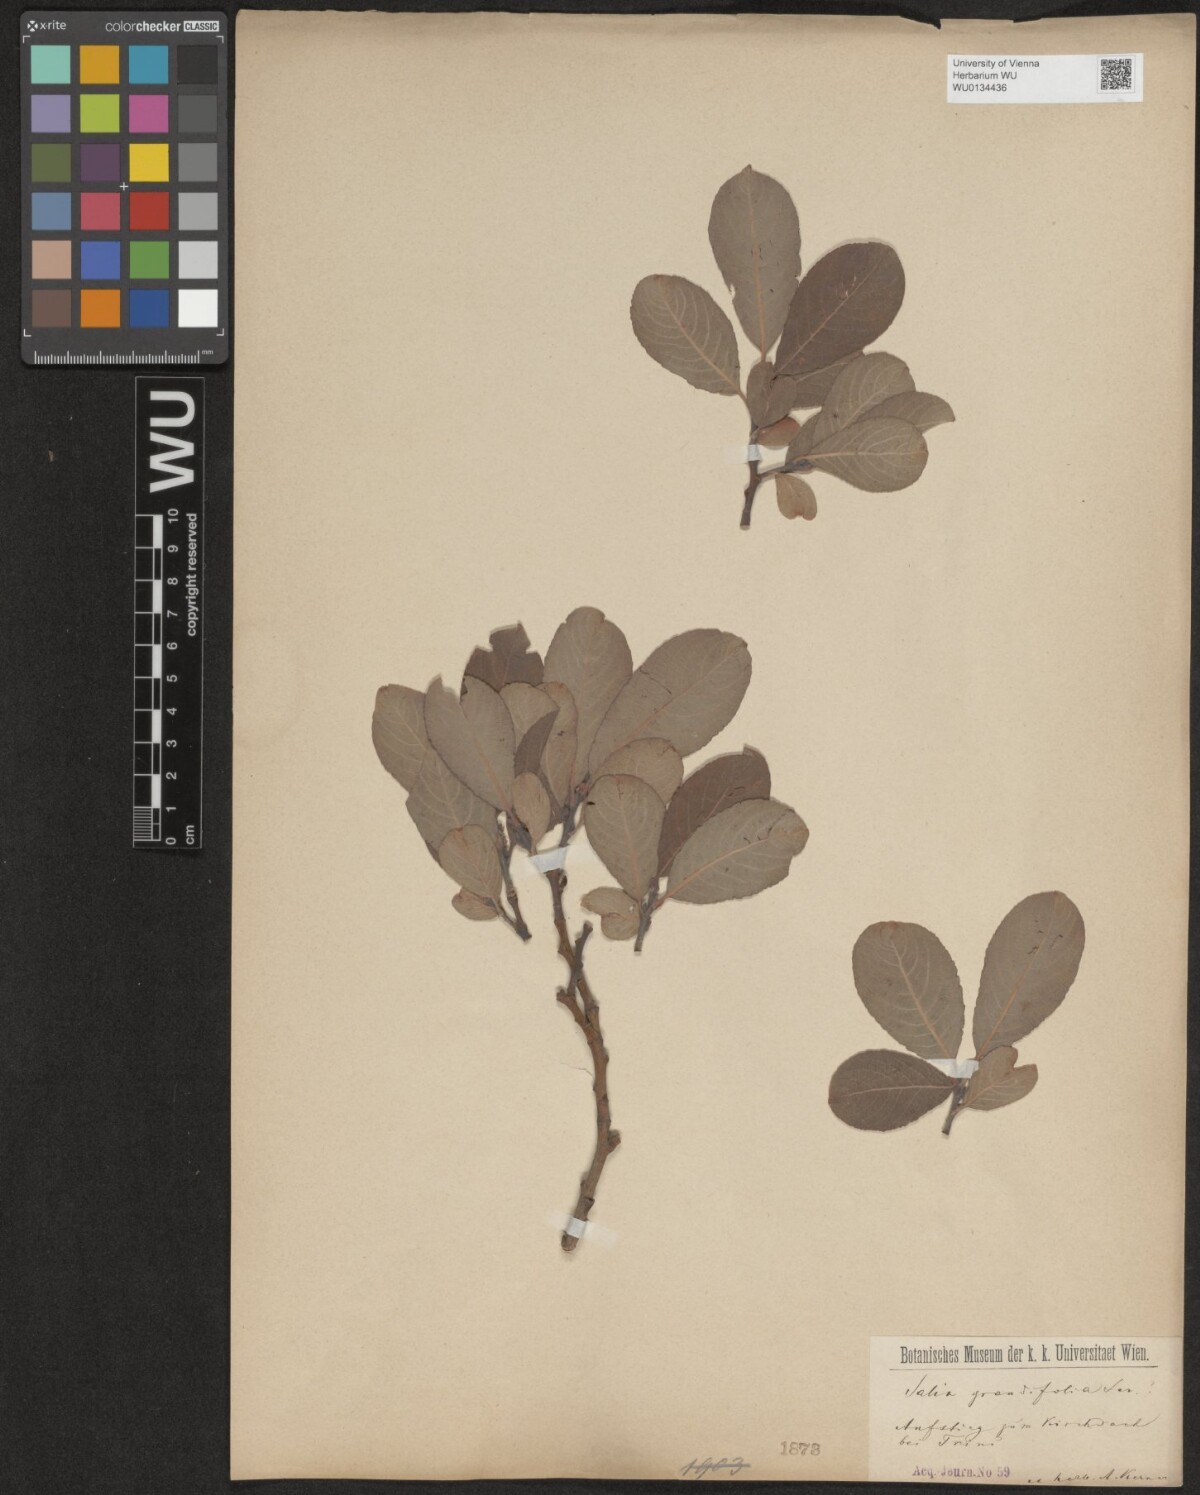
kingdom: Plantae
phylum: Tracheophyta
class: Magnoliopsida
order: Malpighiales
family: Salicaceae
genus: Salix
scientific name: Salix appendiculata
